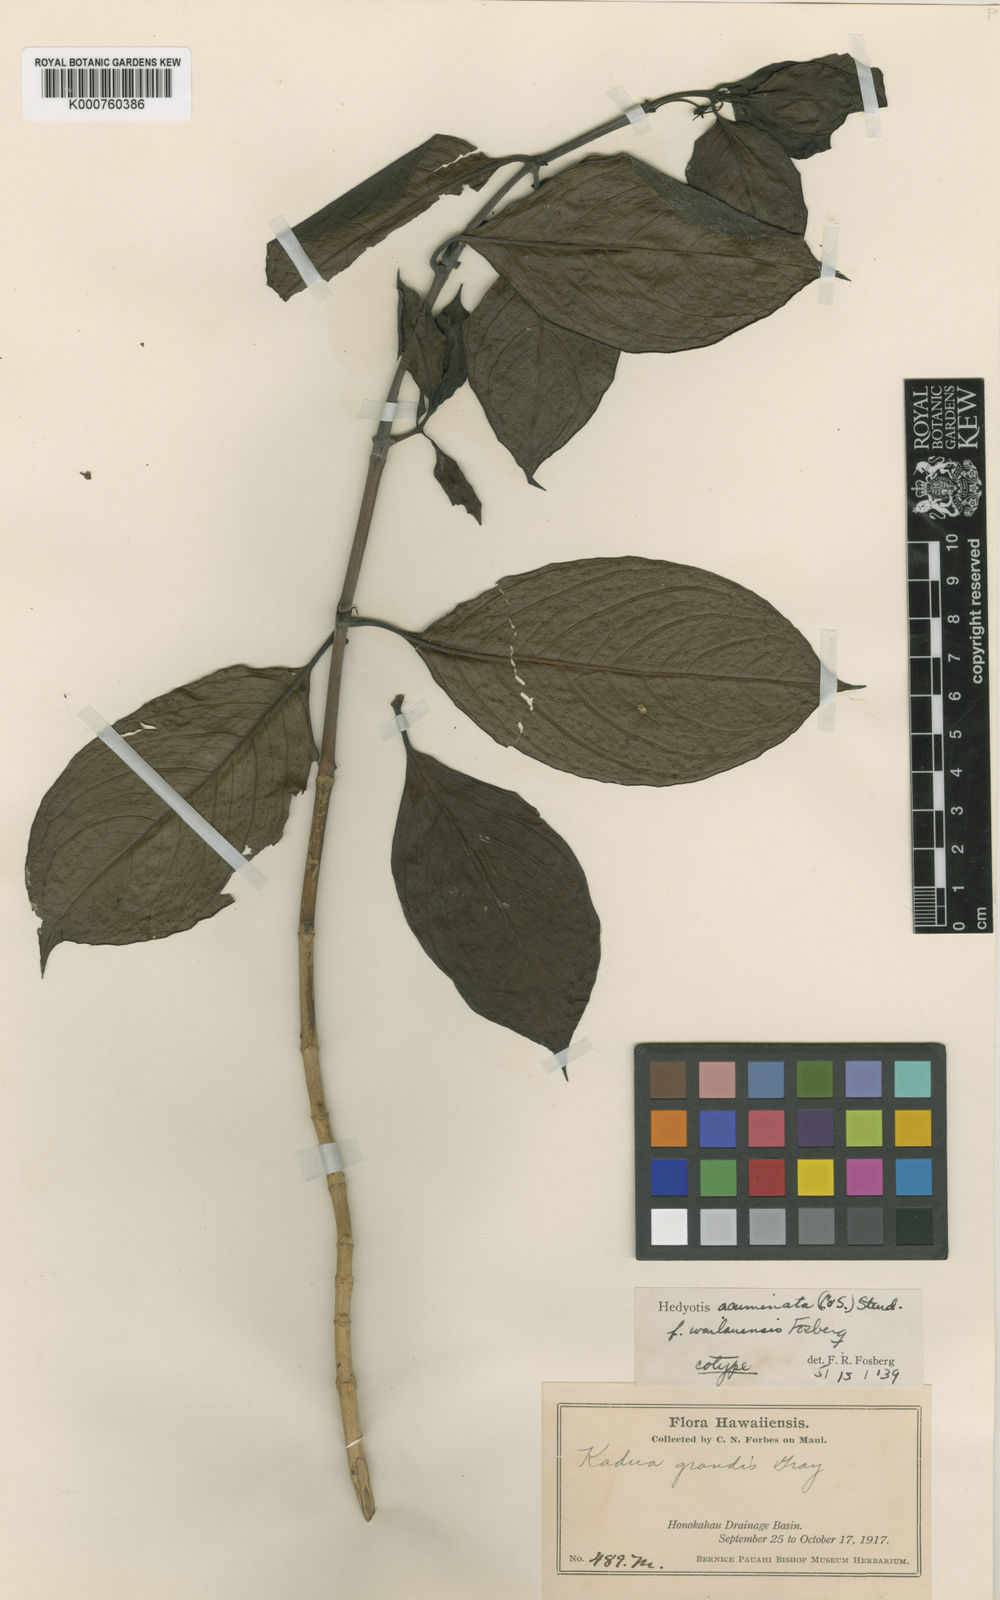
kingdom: Plantae
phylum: Tracheophyta
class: Magnoliopsida
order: Gentianales
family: Rubiaceae
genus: Kadua
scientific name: Kadua acuminata
